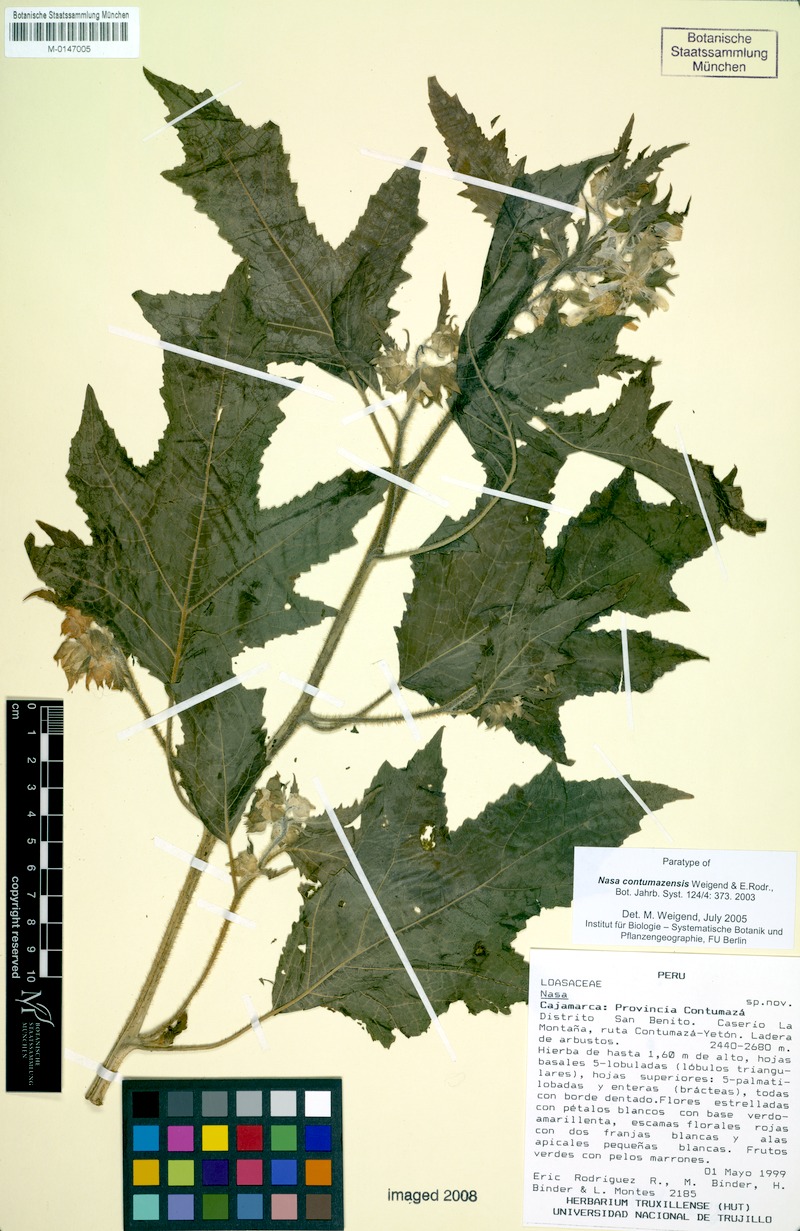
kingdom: Plantae
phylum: Tracheophyta
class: Magnoliopsida
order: Cornales
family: Loasaceae
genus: Nasa
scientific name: Nasa contumazensis
